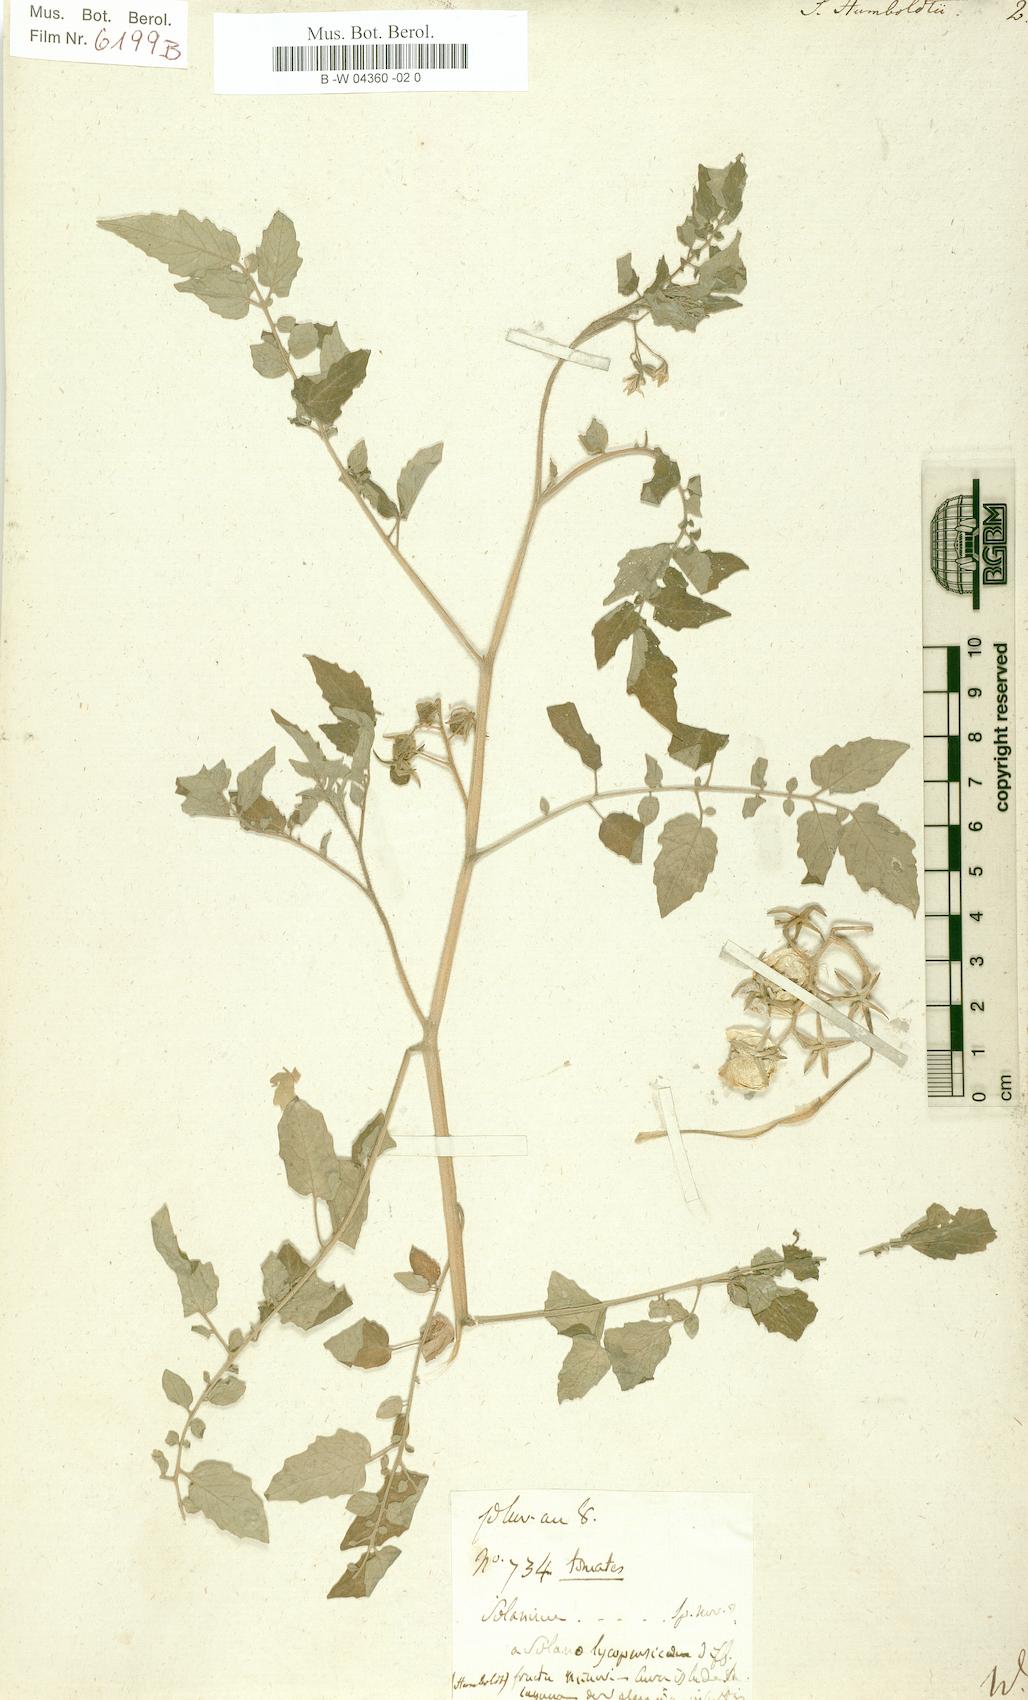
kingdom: Plantae
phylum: Tracheophyta
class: Magnoliopsida
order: Solanales
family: Solanaceae
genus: Solanum
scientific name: Solanum lycopersicum
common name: Garden tomato
